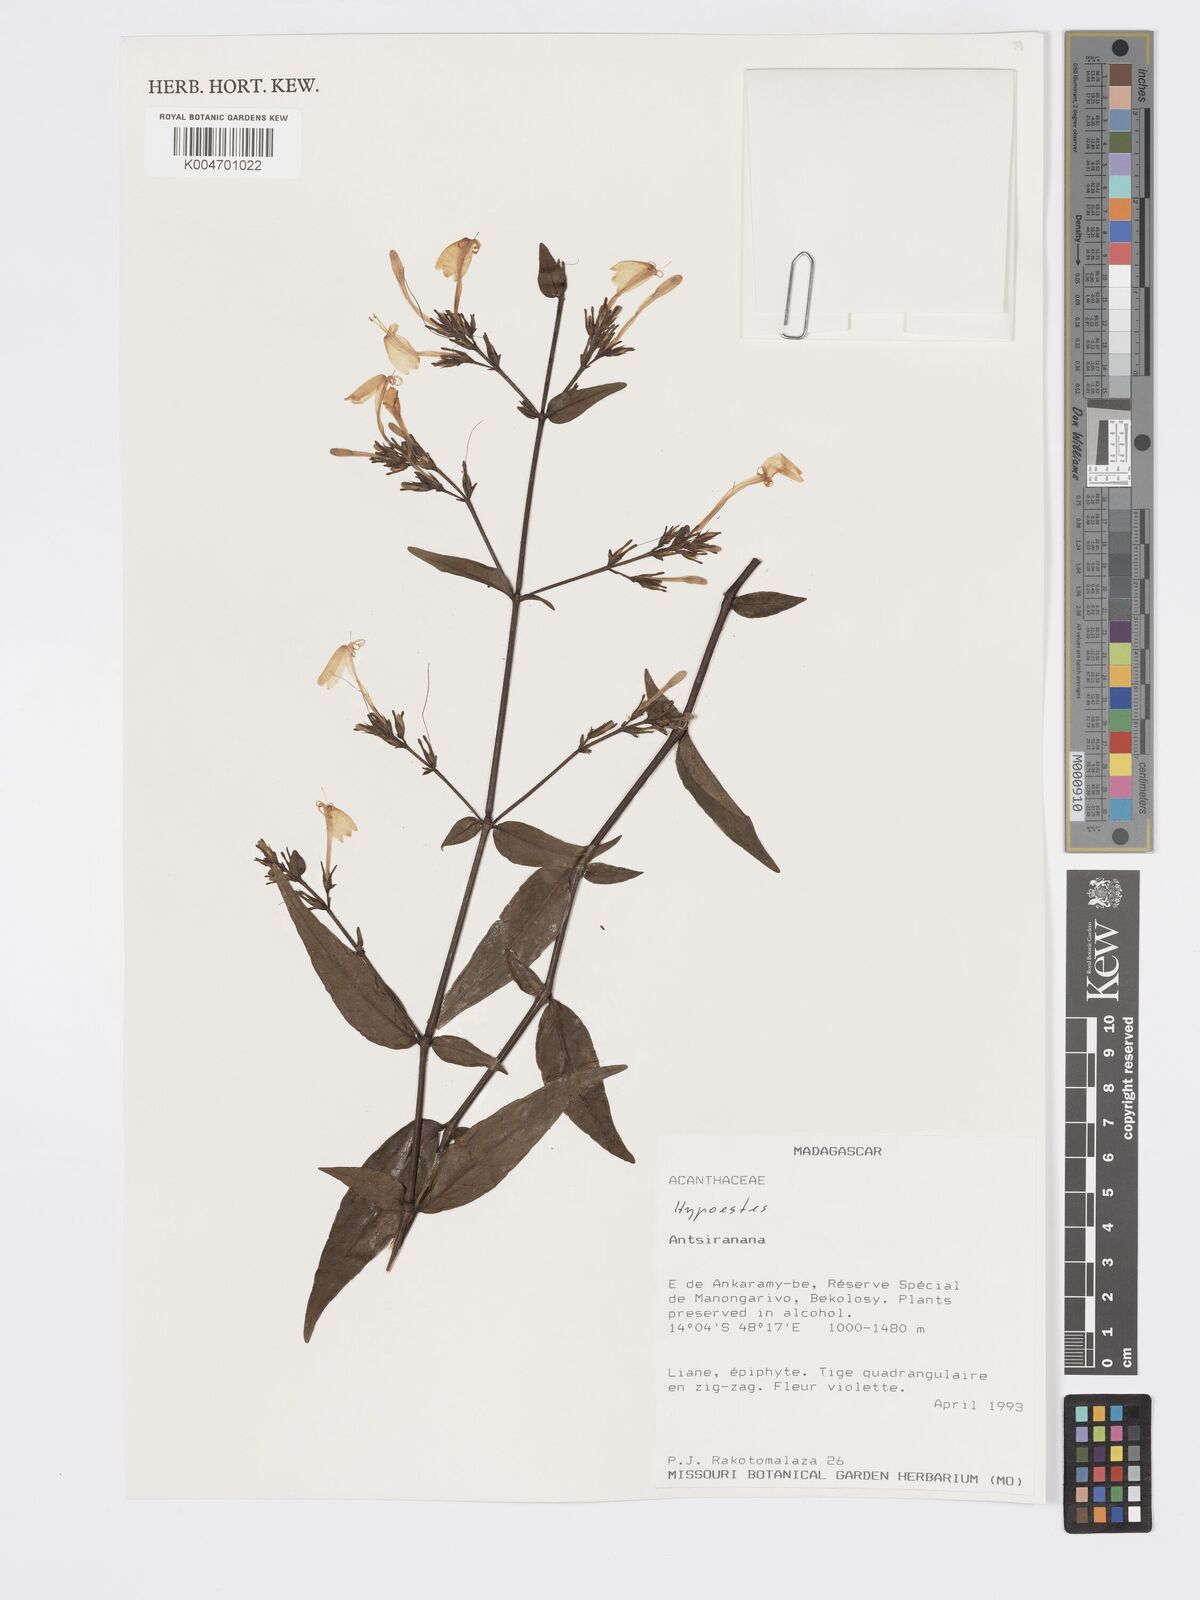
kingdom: Plantae
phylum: Tracheophyta
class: Magnoliopsida
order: Lamiales
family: Acanthaceae
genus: Hypoestes
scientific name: Hypoestes
